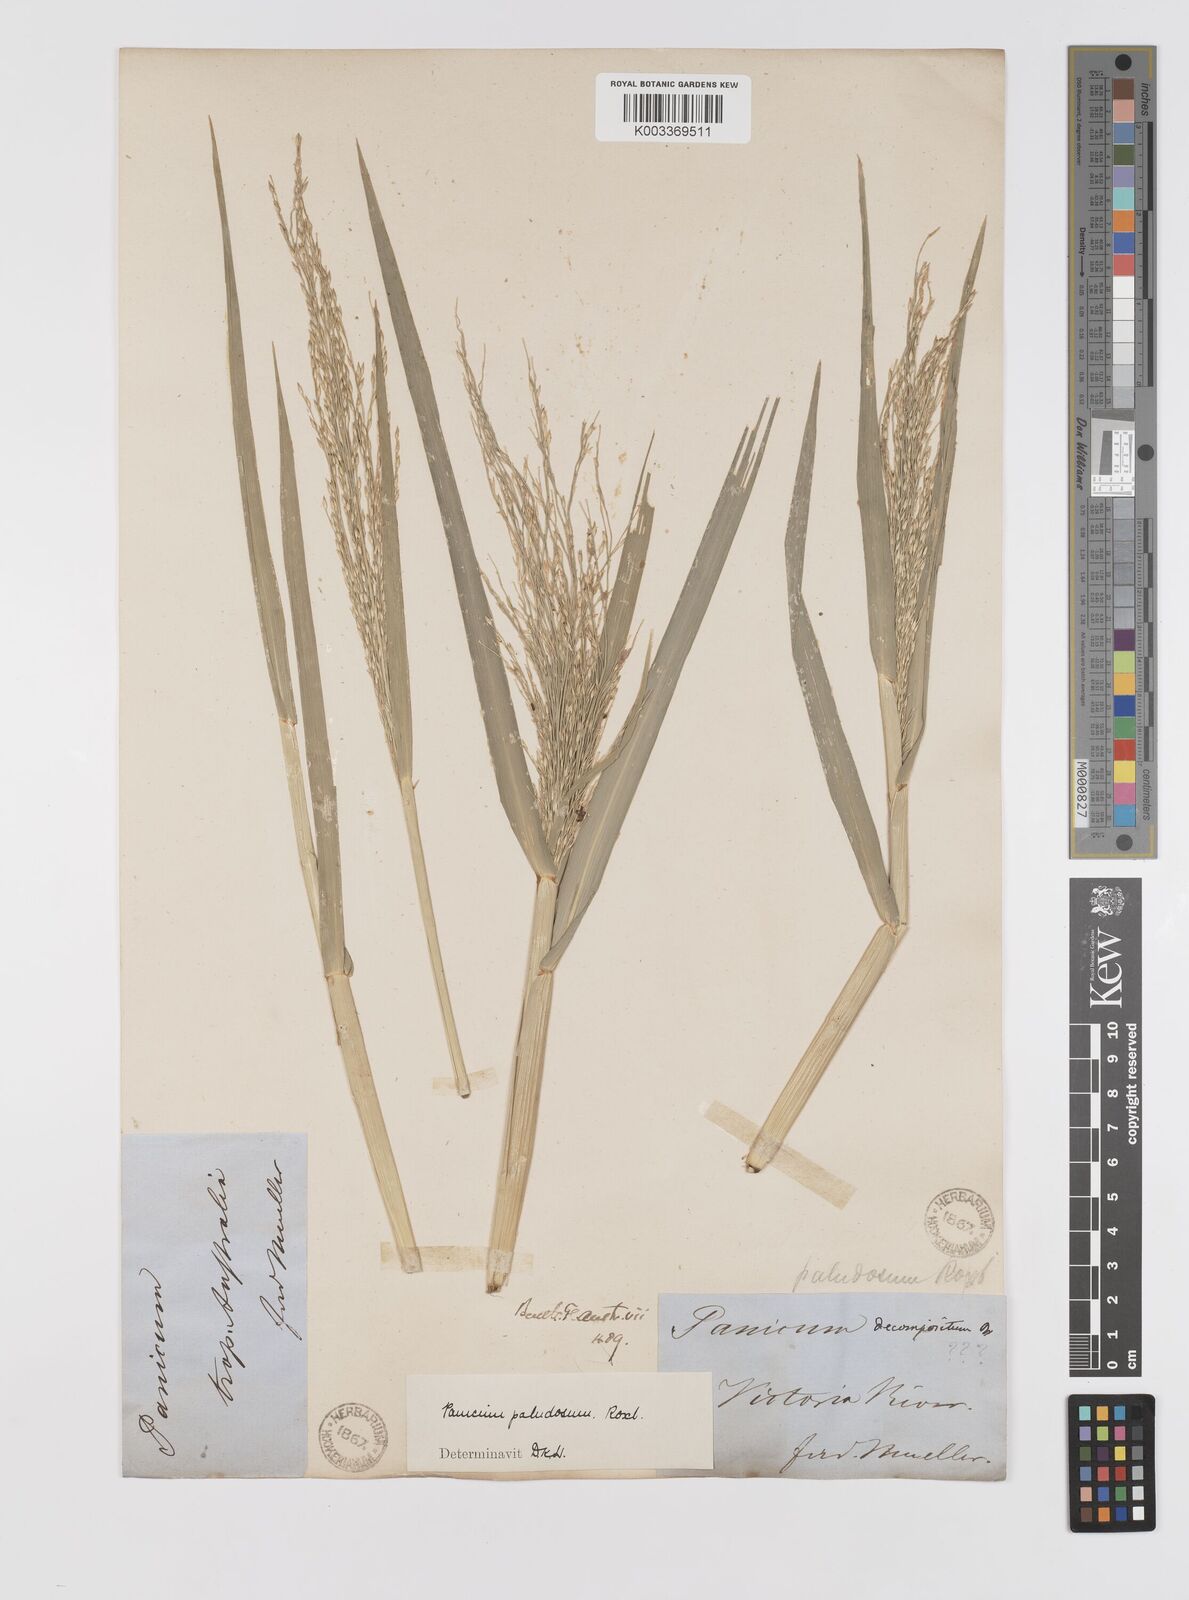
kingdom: Plantae
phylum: Tracheophyta
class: Liliopsida
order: Poales
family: Poaceae
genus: Louisiella
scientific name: Louisiella paludosa
